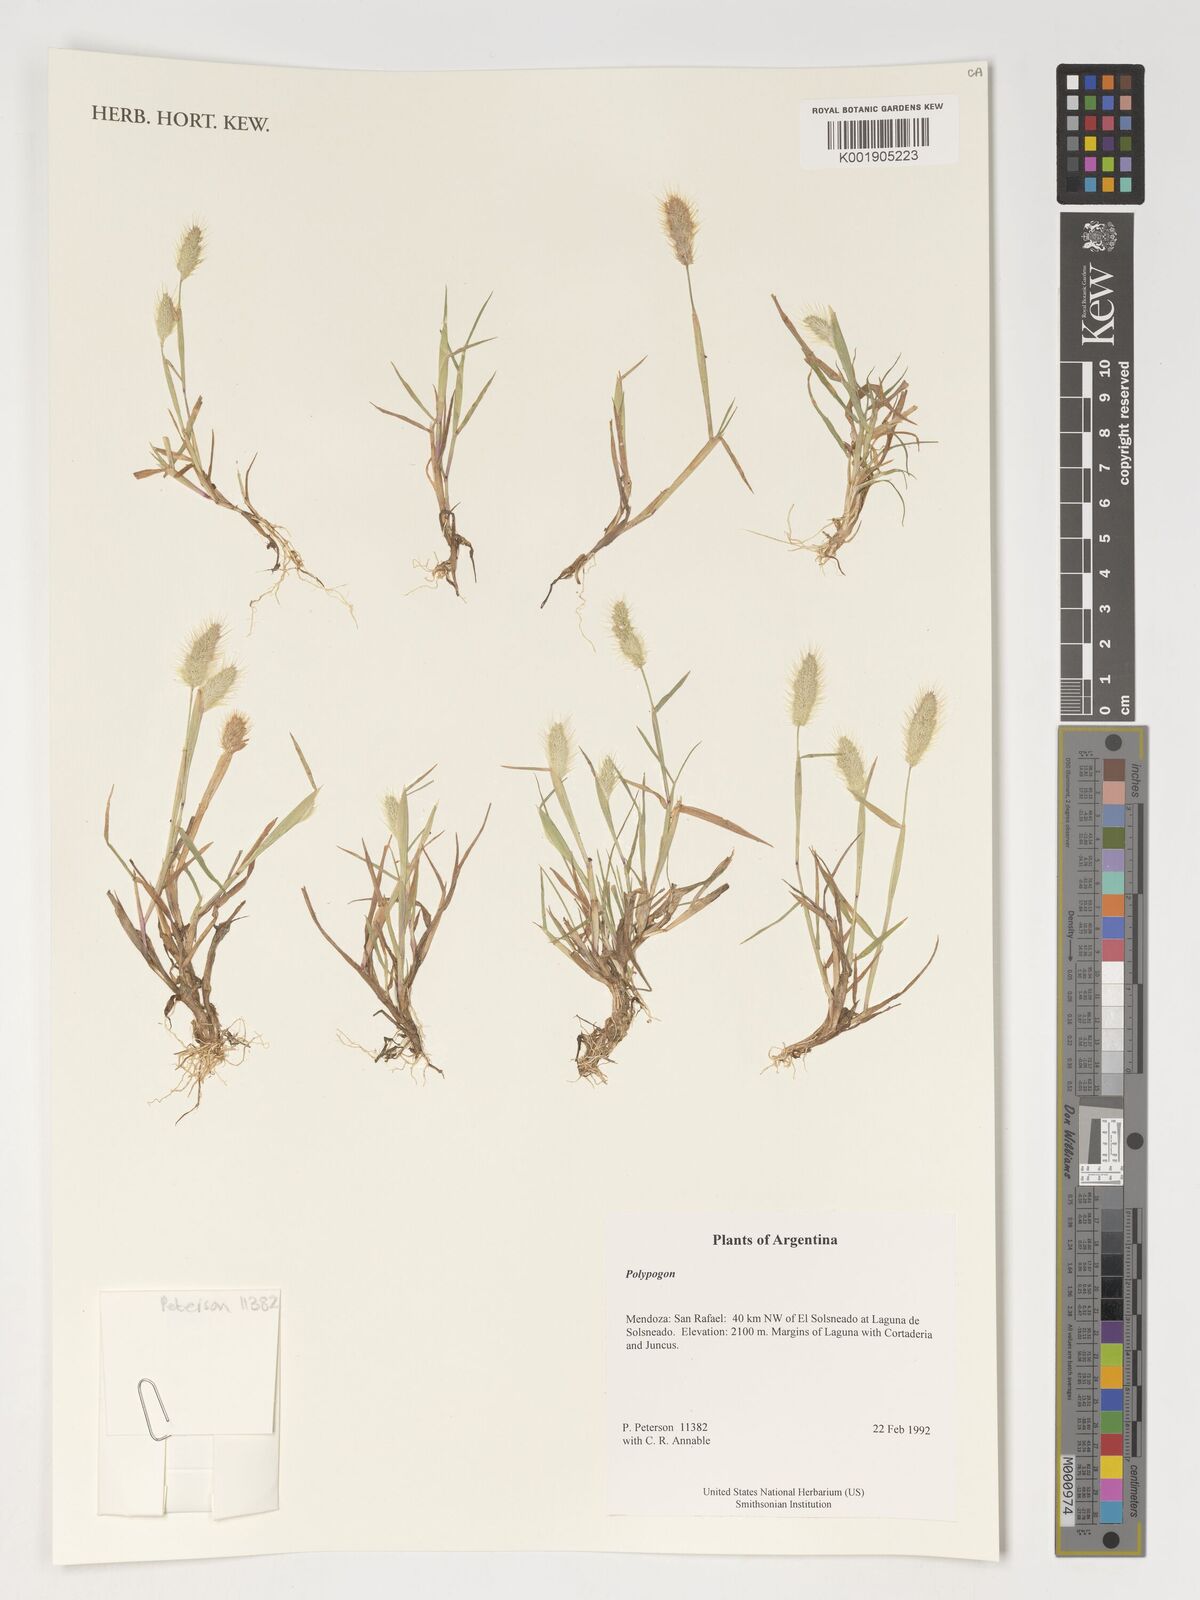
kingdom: Plantae
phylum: Tracheophyta
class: Liliopsida
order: Poales
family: Poaceae
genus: Polypogon
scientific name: Polypogon
